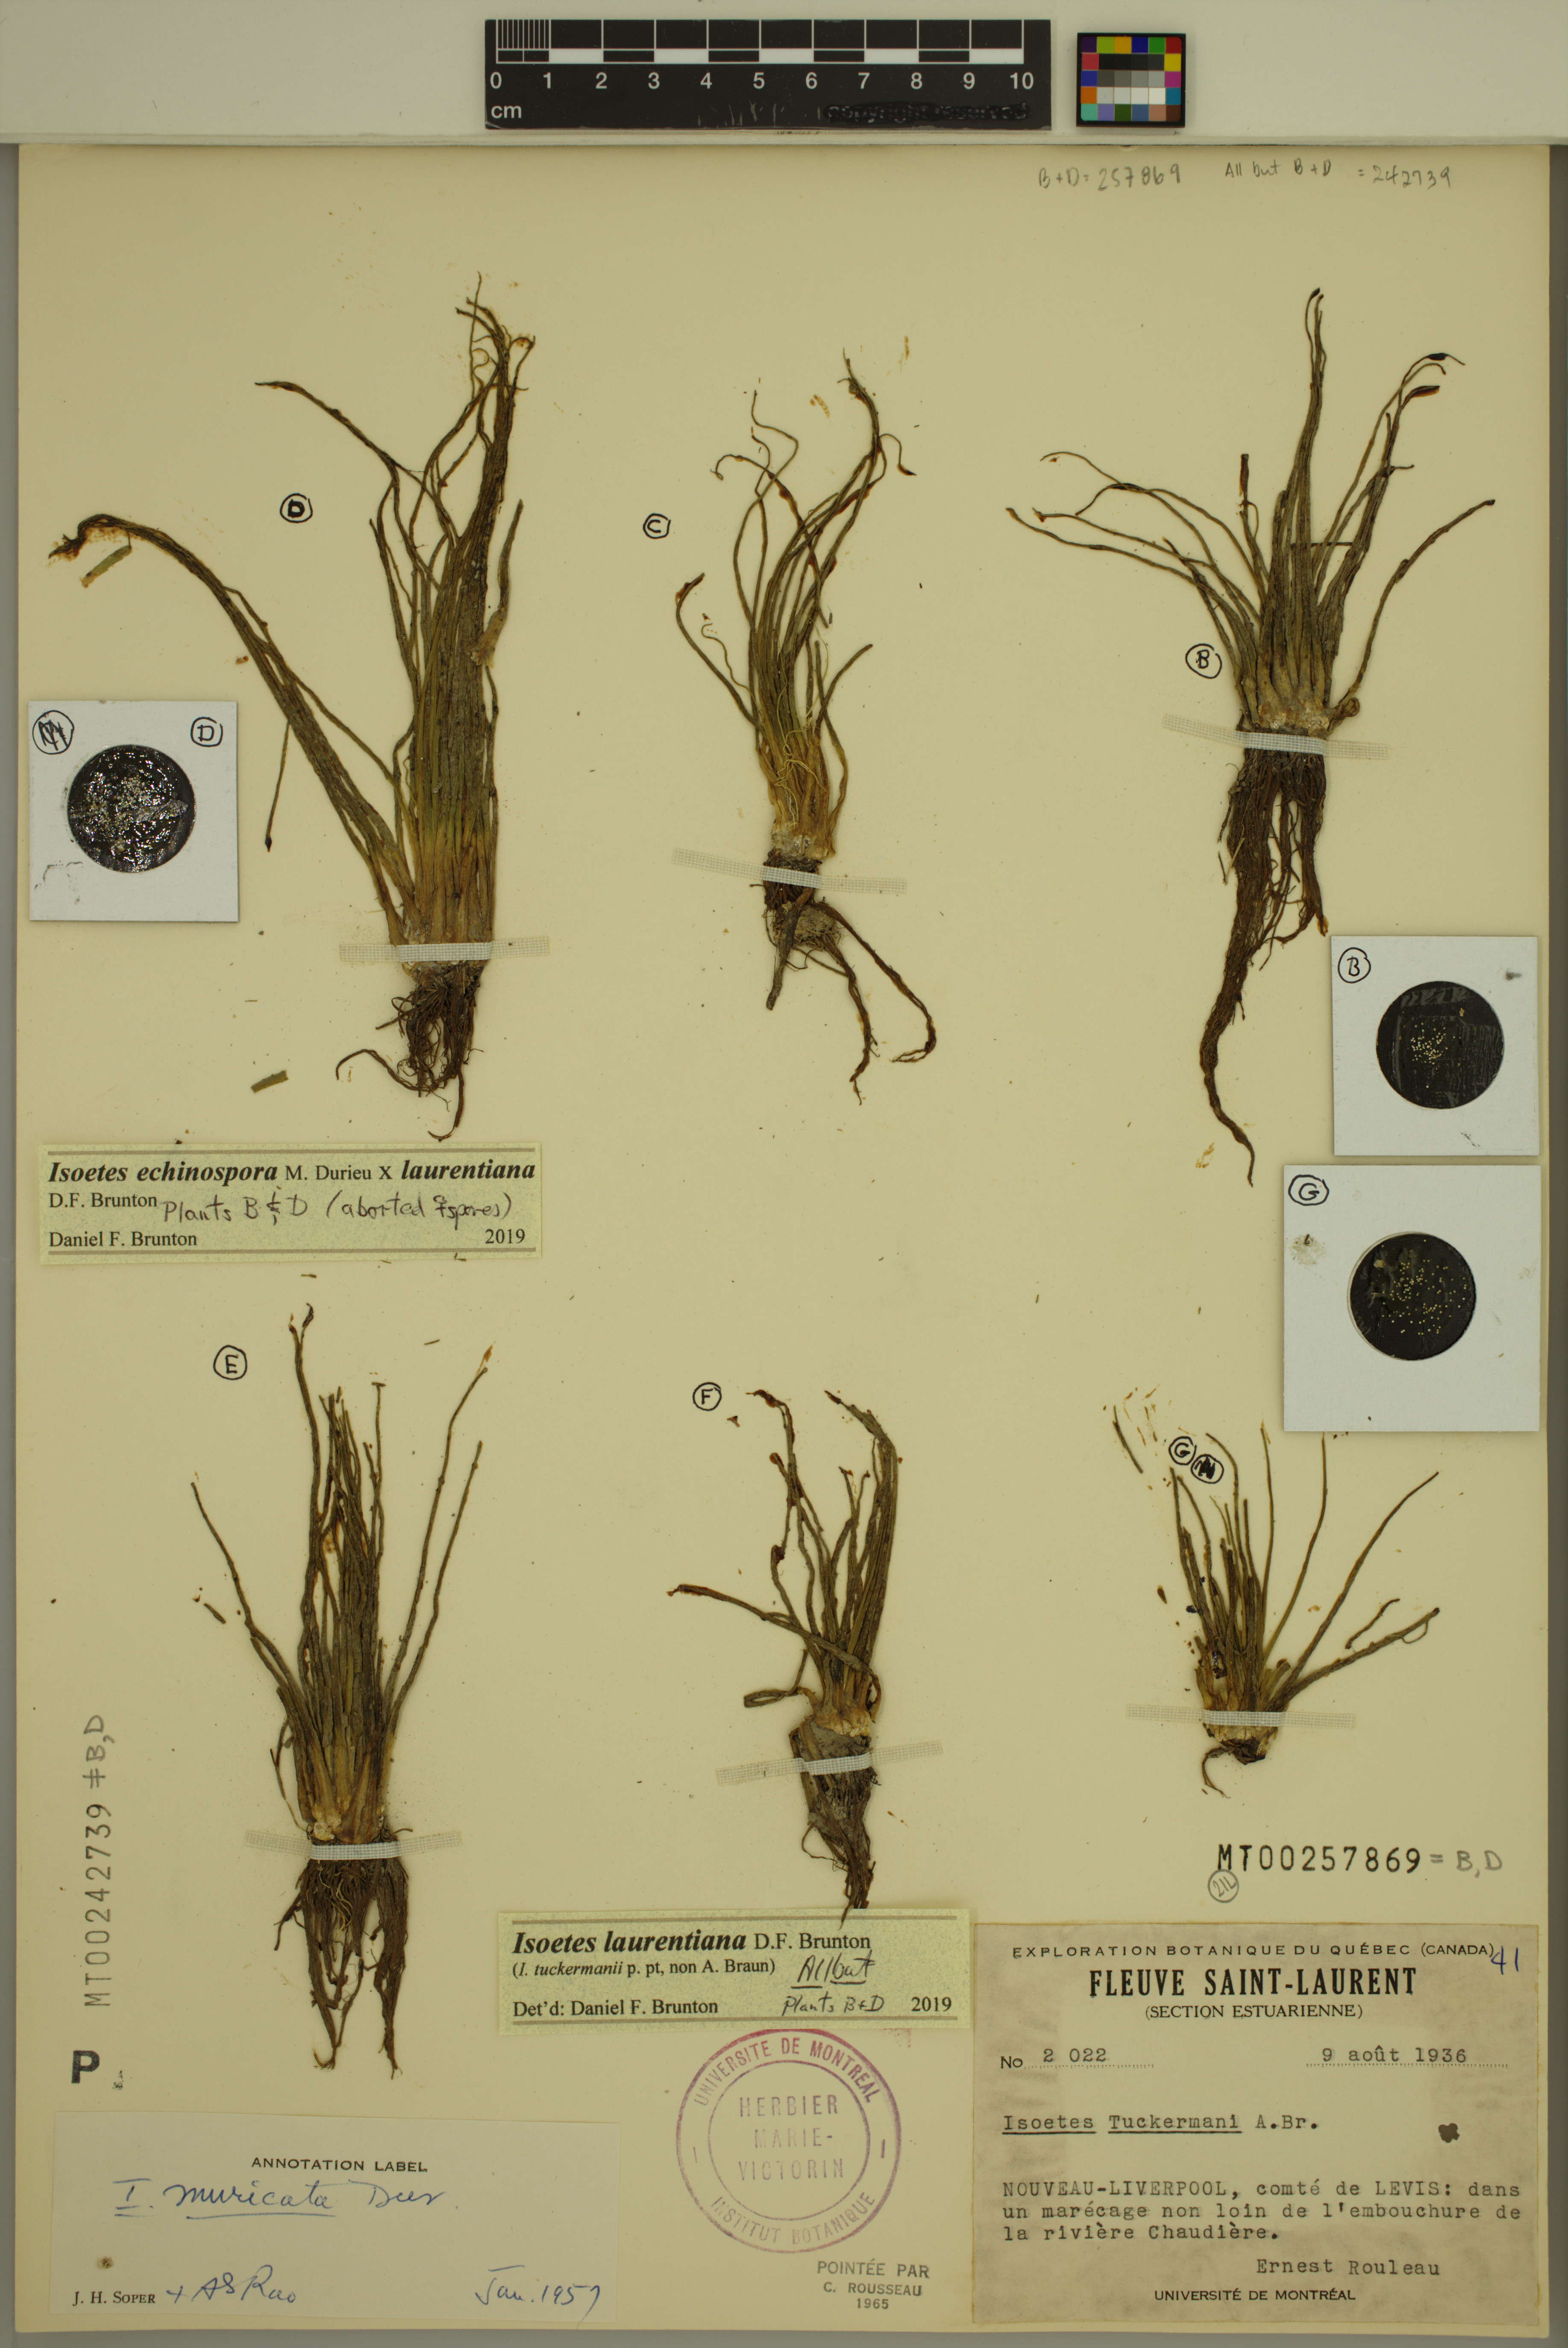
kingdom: Plantae
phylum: Tracheophyta
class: Lycopodiopsida
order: Isoetales
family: Isoetaceae
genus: Isoetes
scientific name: Isoetes echinospora
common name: Spring quillwort
